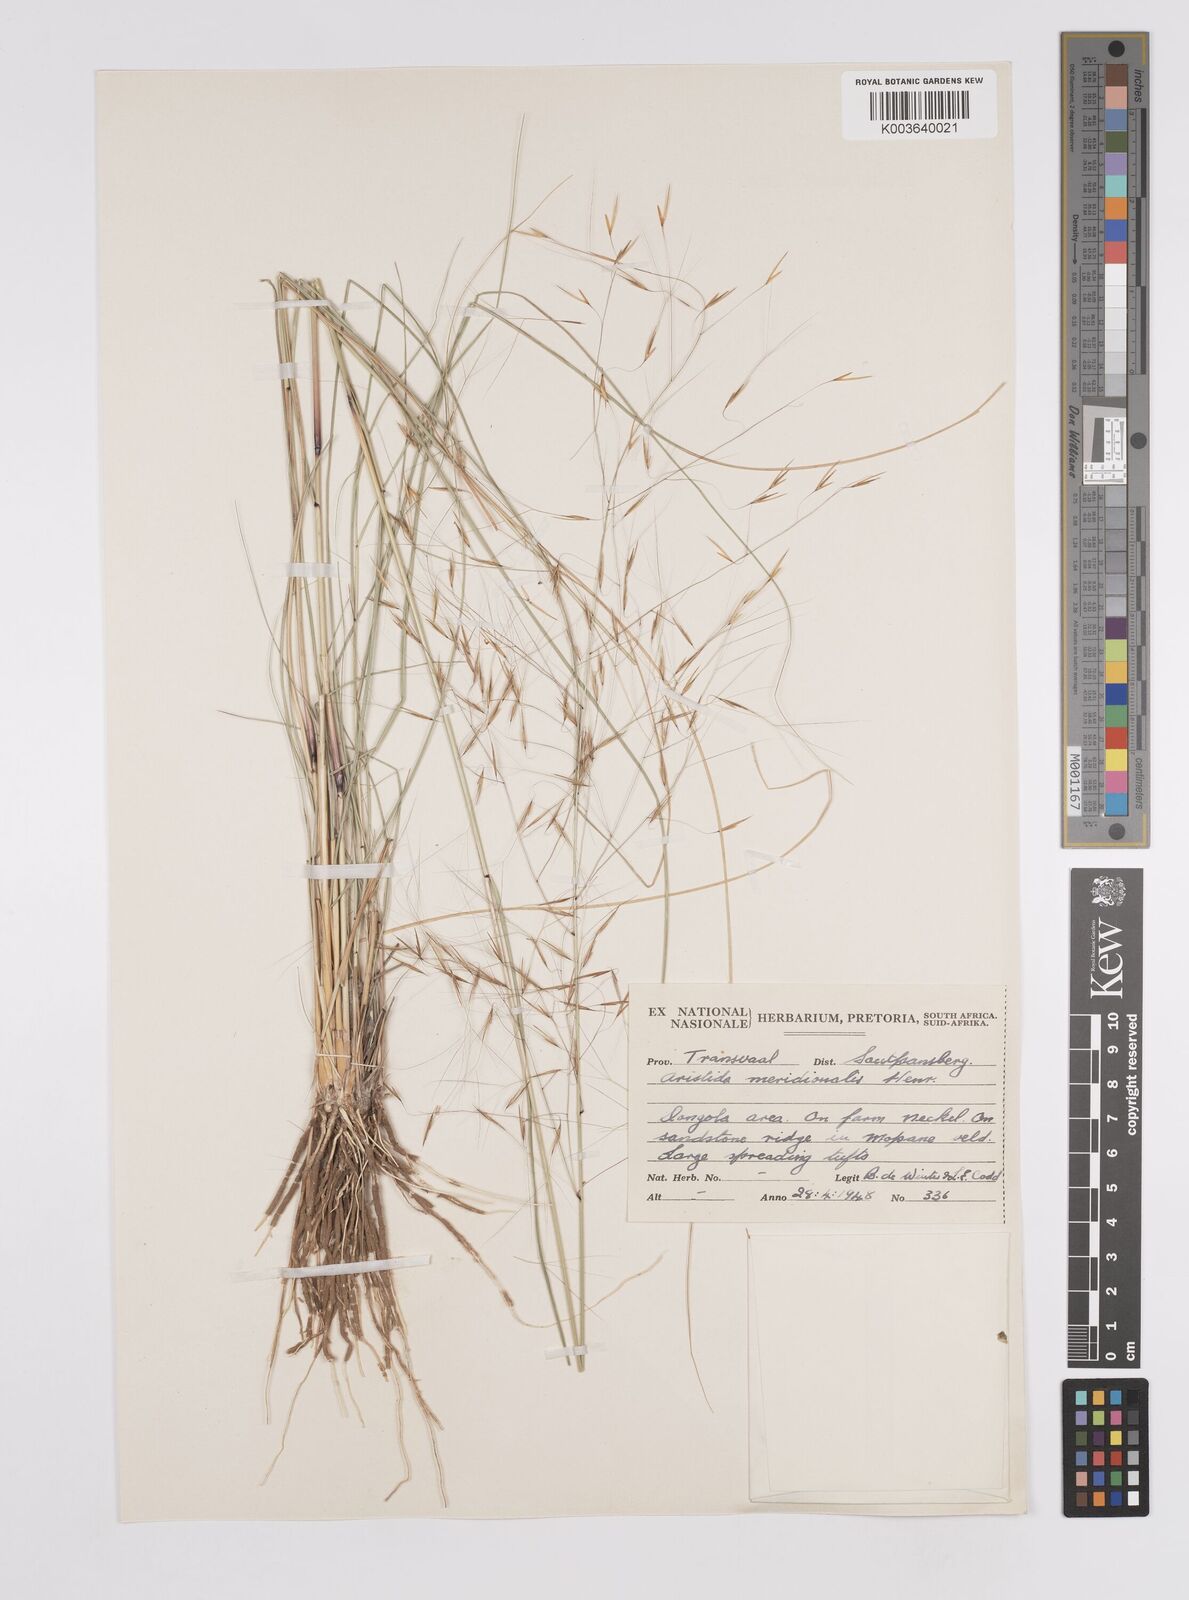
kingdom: Plantae
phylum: Tracheophyta
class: Liliopsida
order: Poales
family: Poaceae
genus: Aristida
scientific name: Aristida meridionalis
